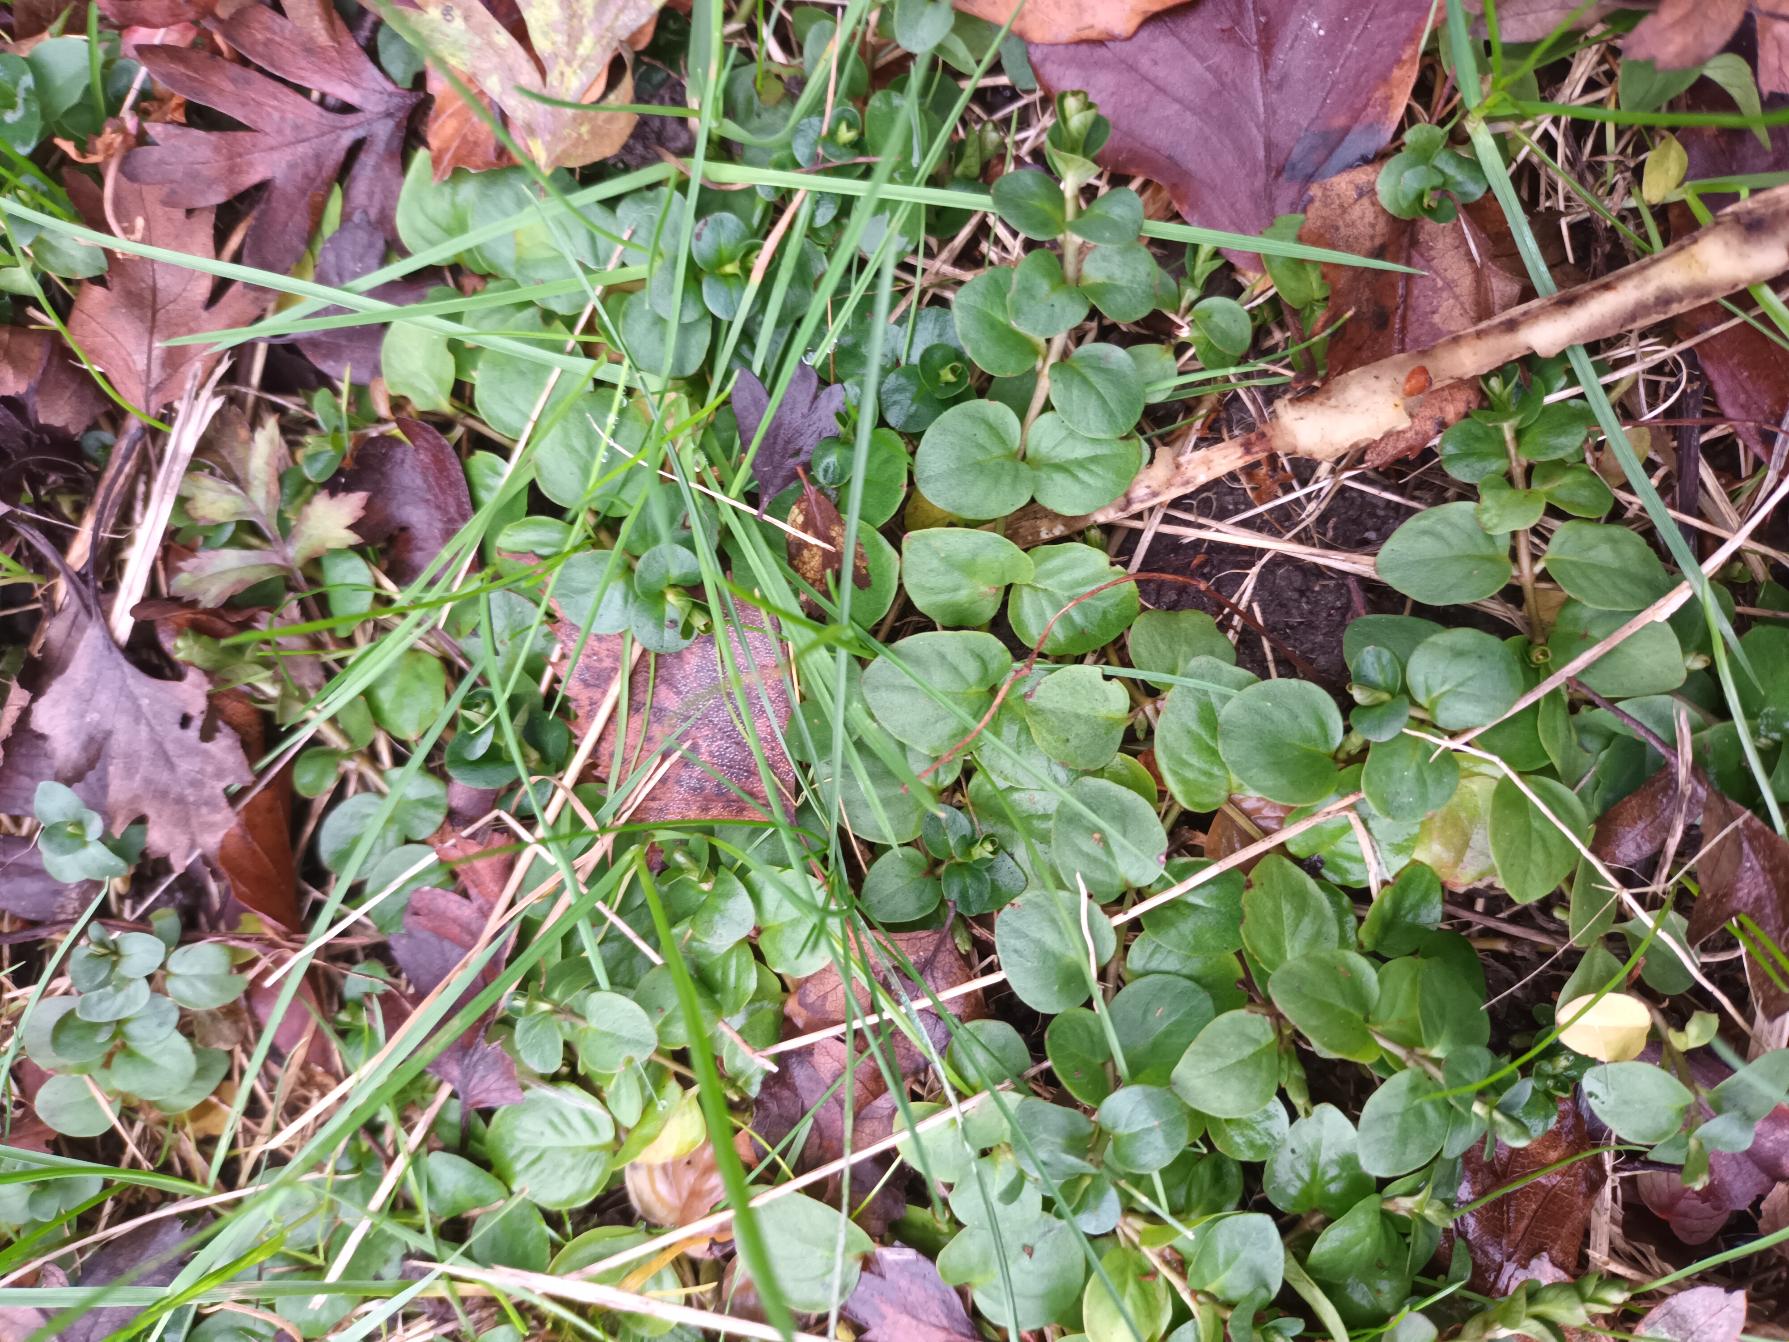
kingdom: Plantae
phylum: Tracheophyta
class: Magnoliopsida
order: Ericales
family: Primulaceae
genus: Lysimachia
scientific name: Lysimachia nummularia
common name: Pengebladet fredløs
